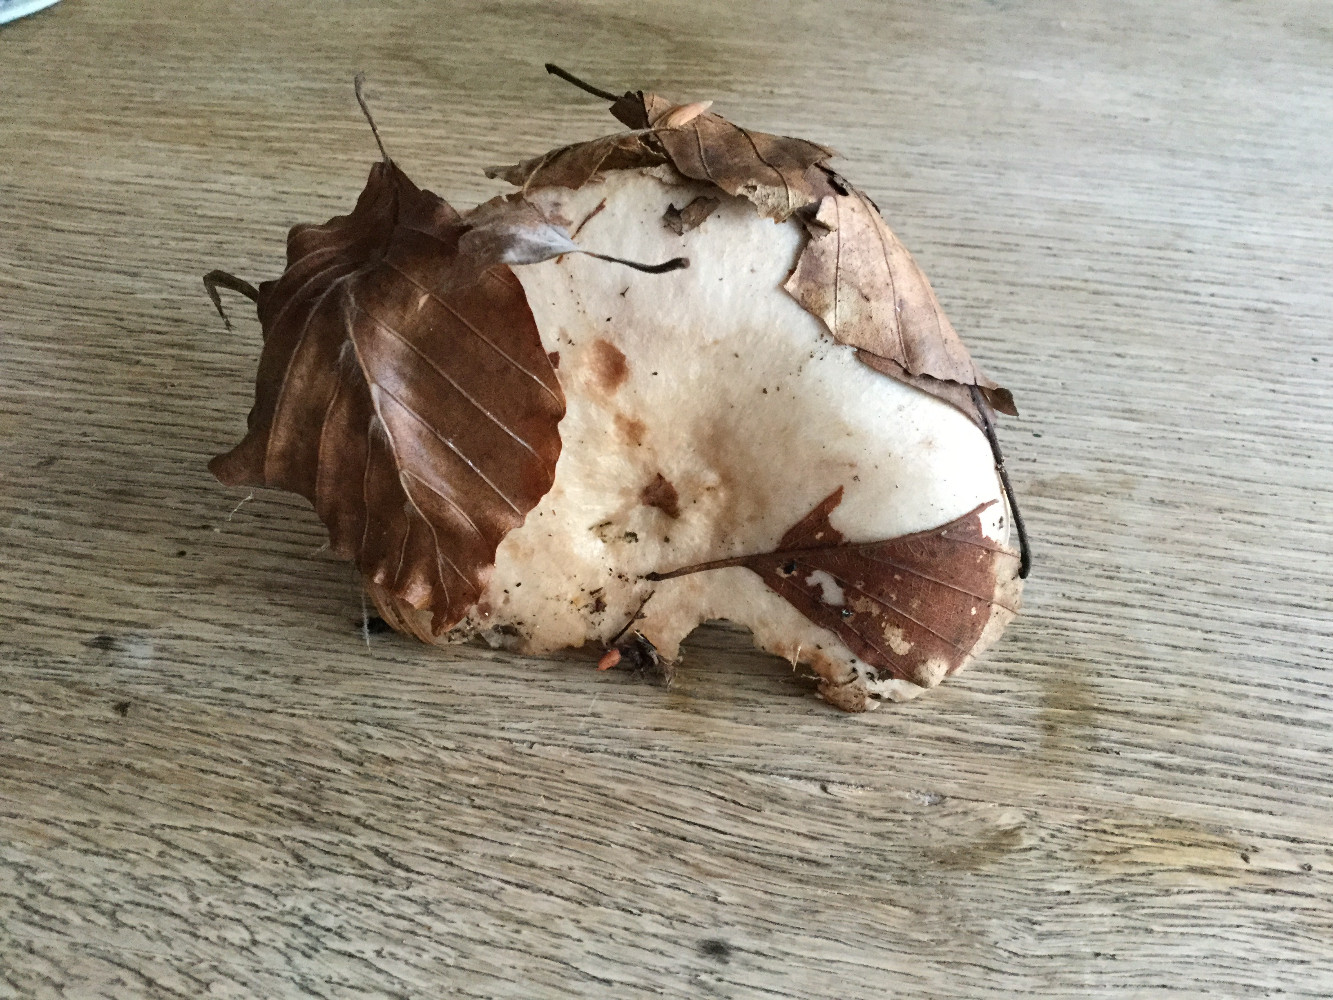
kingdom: Fungi
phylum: Basidiomycota
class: Agaricomycetes
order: Russulales
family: Russulaceae
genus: Lactarius
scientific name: Lactarius pallidus
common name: bleg mælkehat
